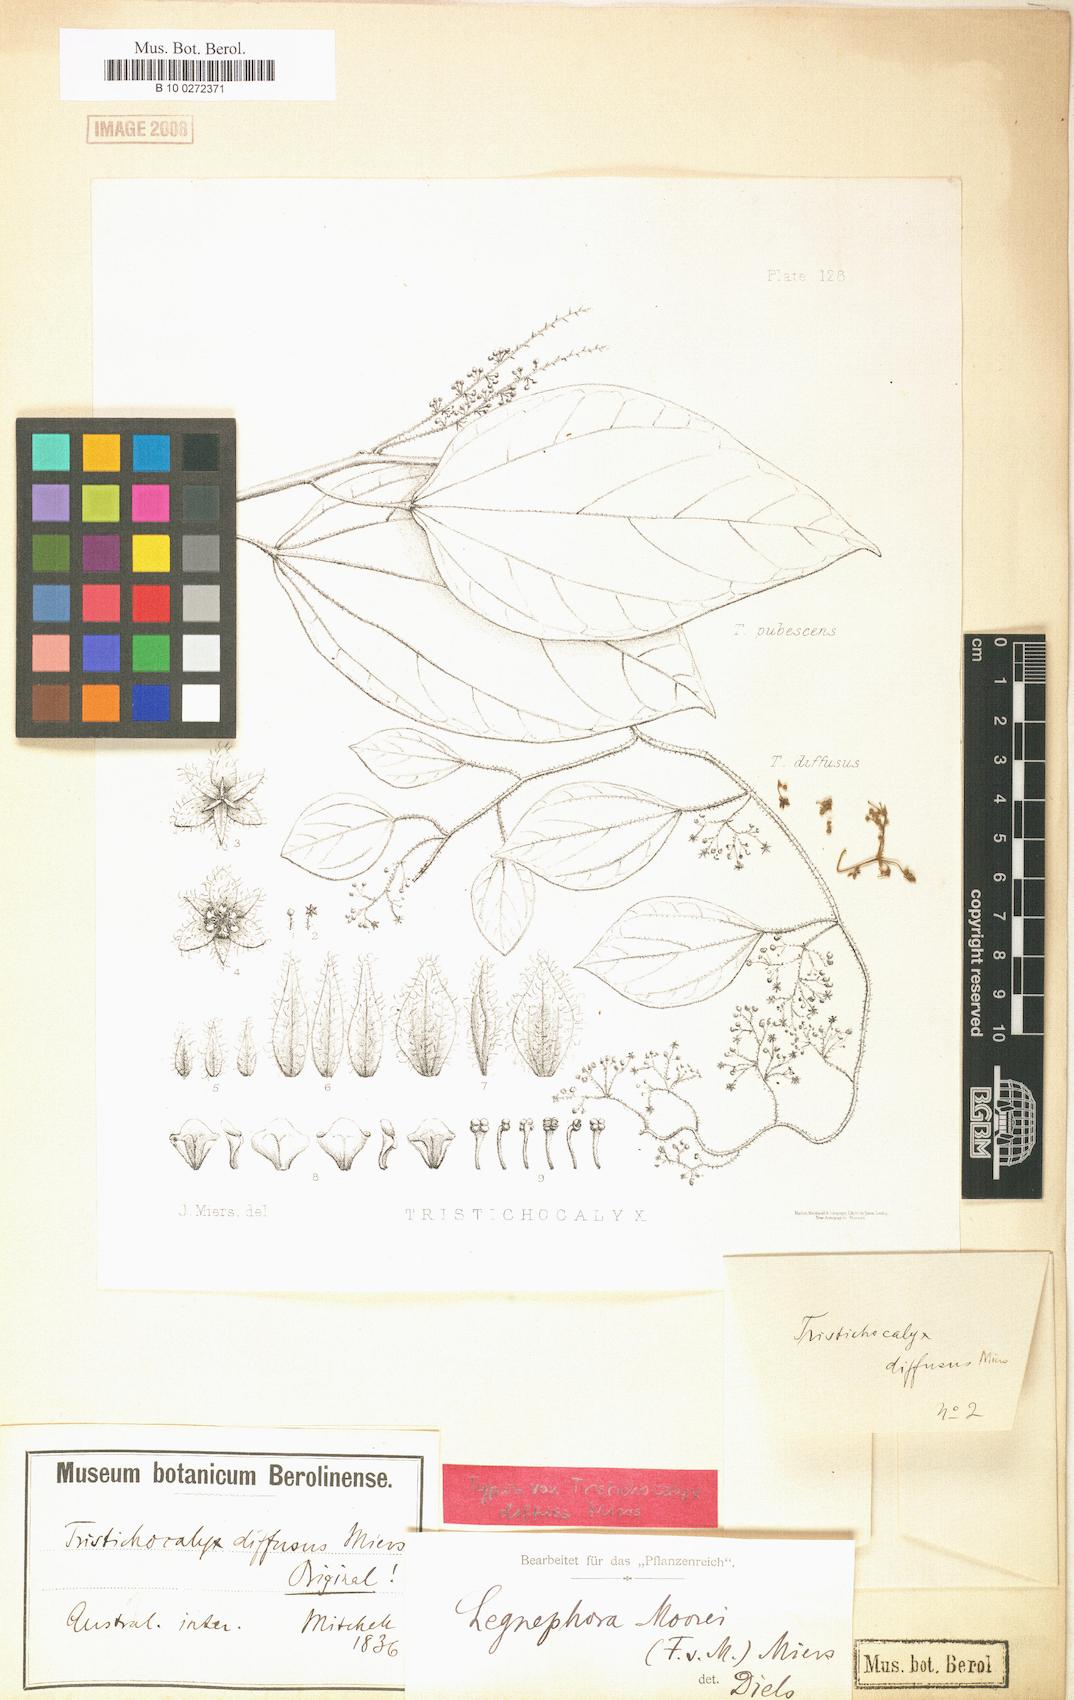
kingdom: Plantae
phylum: Tracheophyta
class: Magnoliopsida
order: Ranunculales
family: Menispermaceae
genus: Legnephora
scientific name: Legnephora moorei
